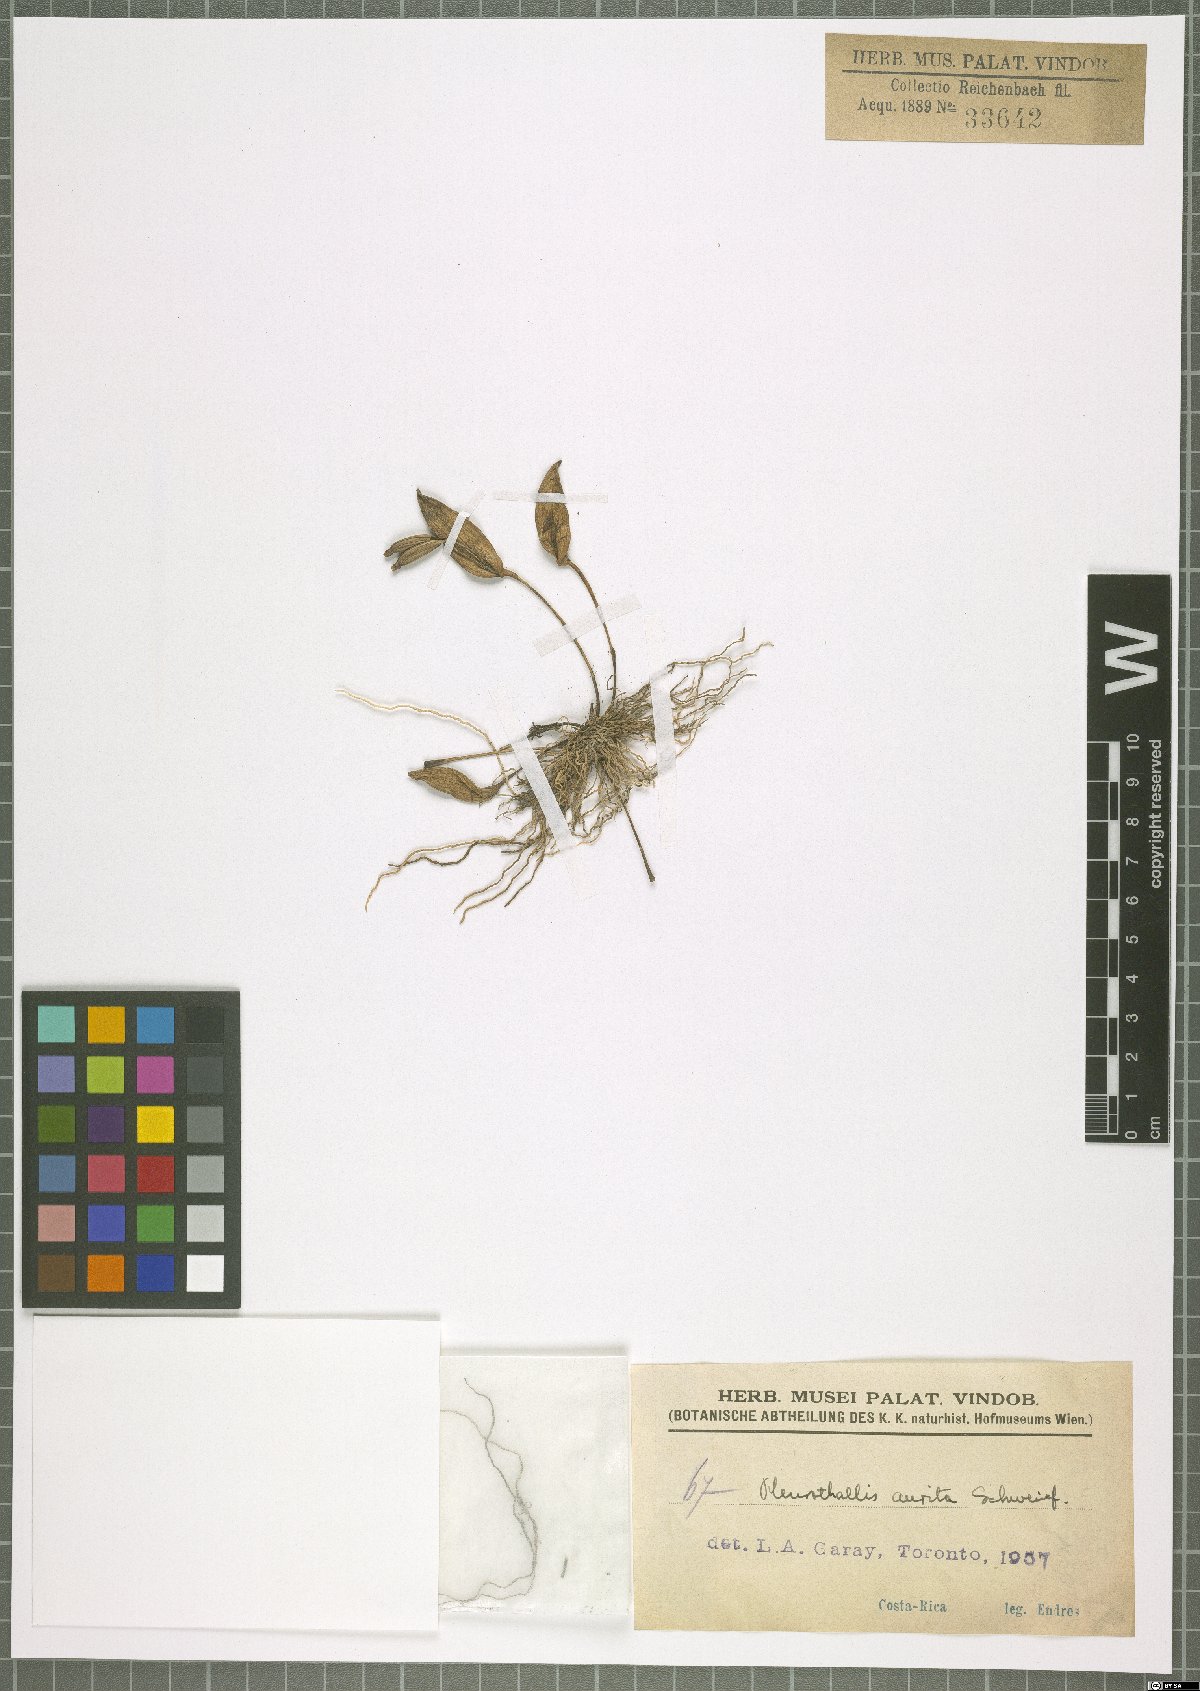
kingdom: Plantae
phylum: Tracheophyta
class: Liliopsida
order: Asparagales
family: Orchidaceae
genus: Pleurothallis
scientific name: Pleurothallis aurita
